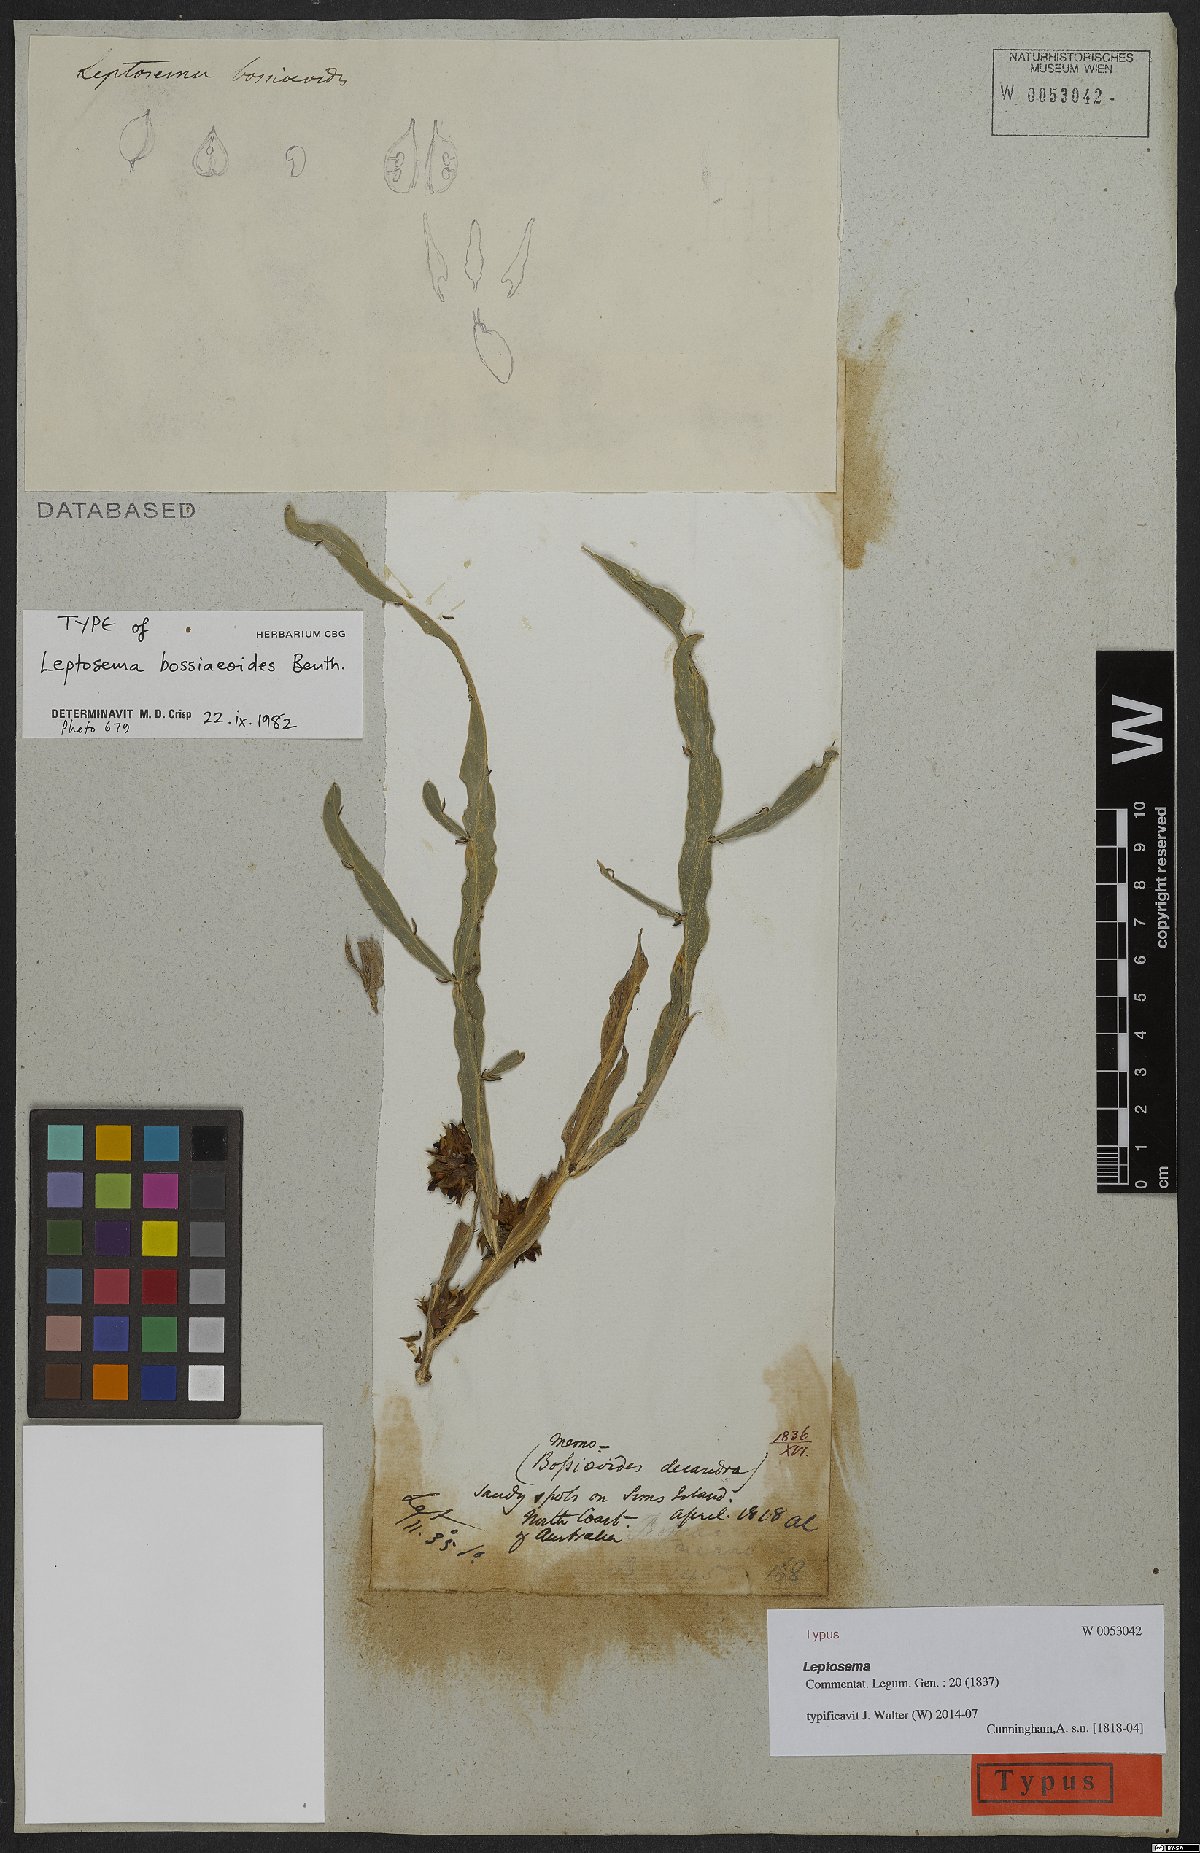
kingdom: Plantae
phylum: Tracheophyta
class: Magnoliopsida
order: Fabales
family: Fabaceae
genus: Leptosema
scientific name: Leptosema bossiaeoides
